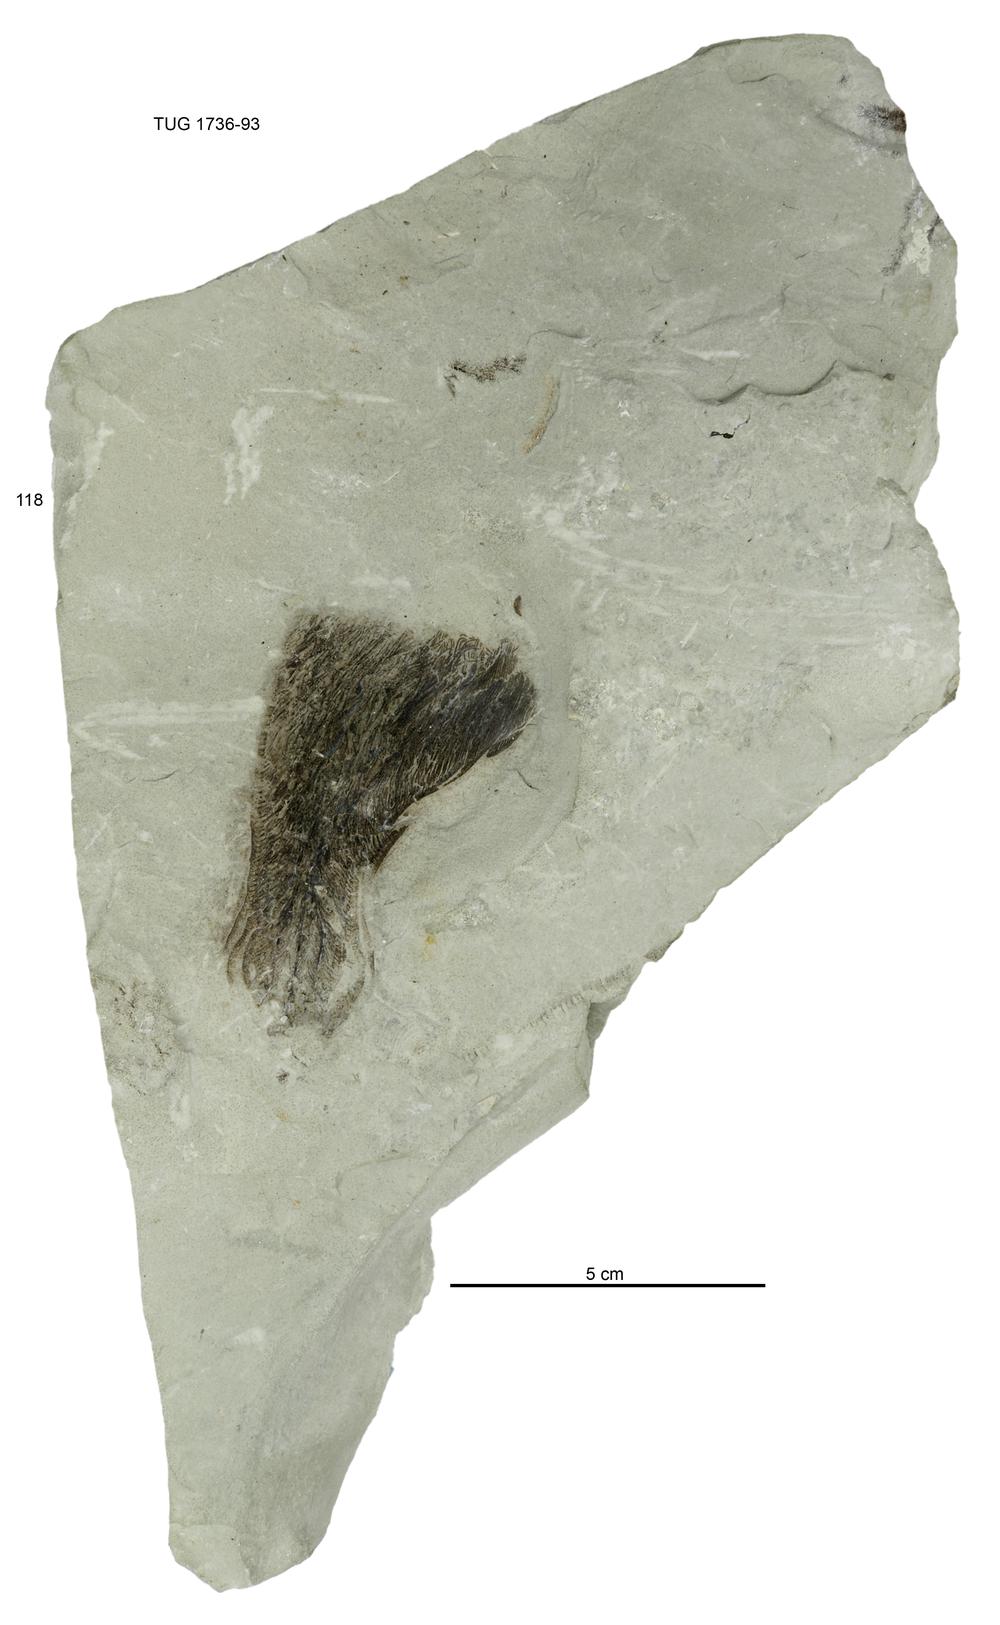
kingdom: Animalia
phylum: Echinodermata
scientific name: Echinodermata
